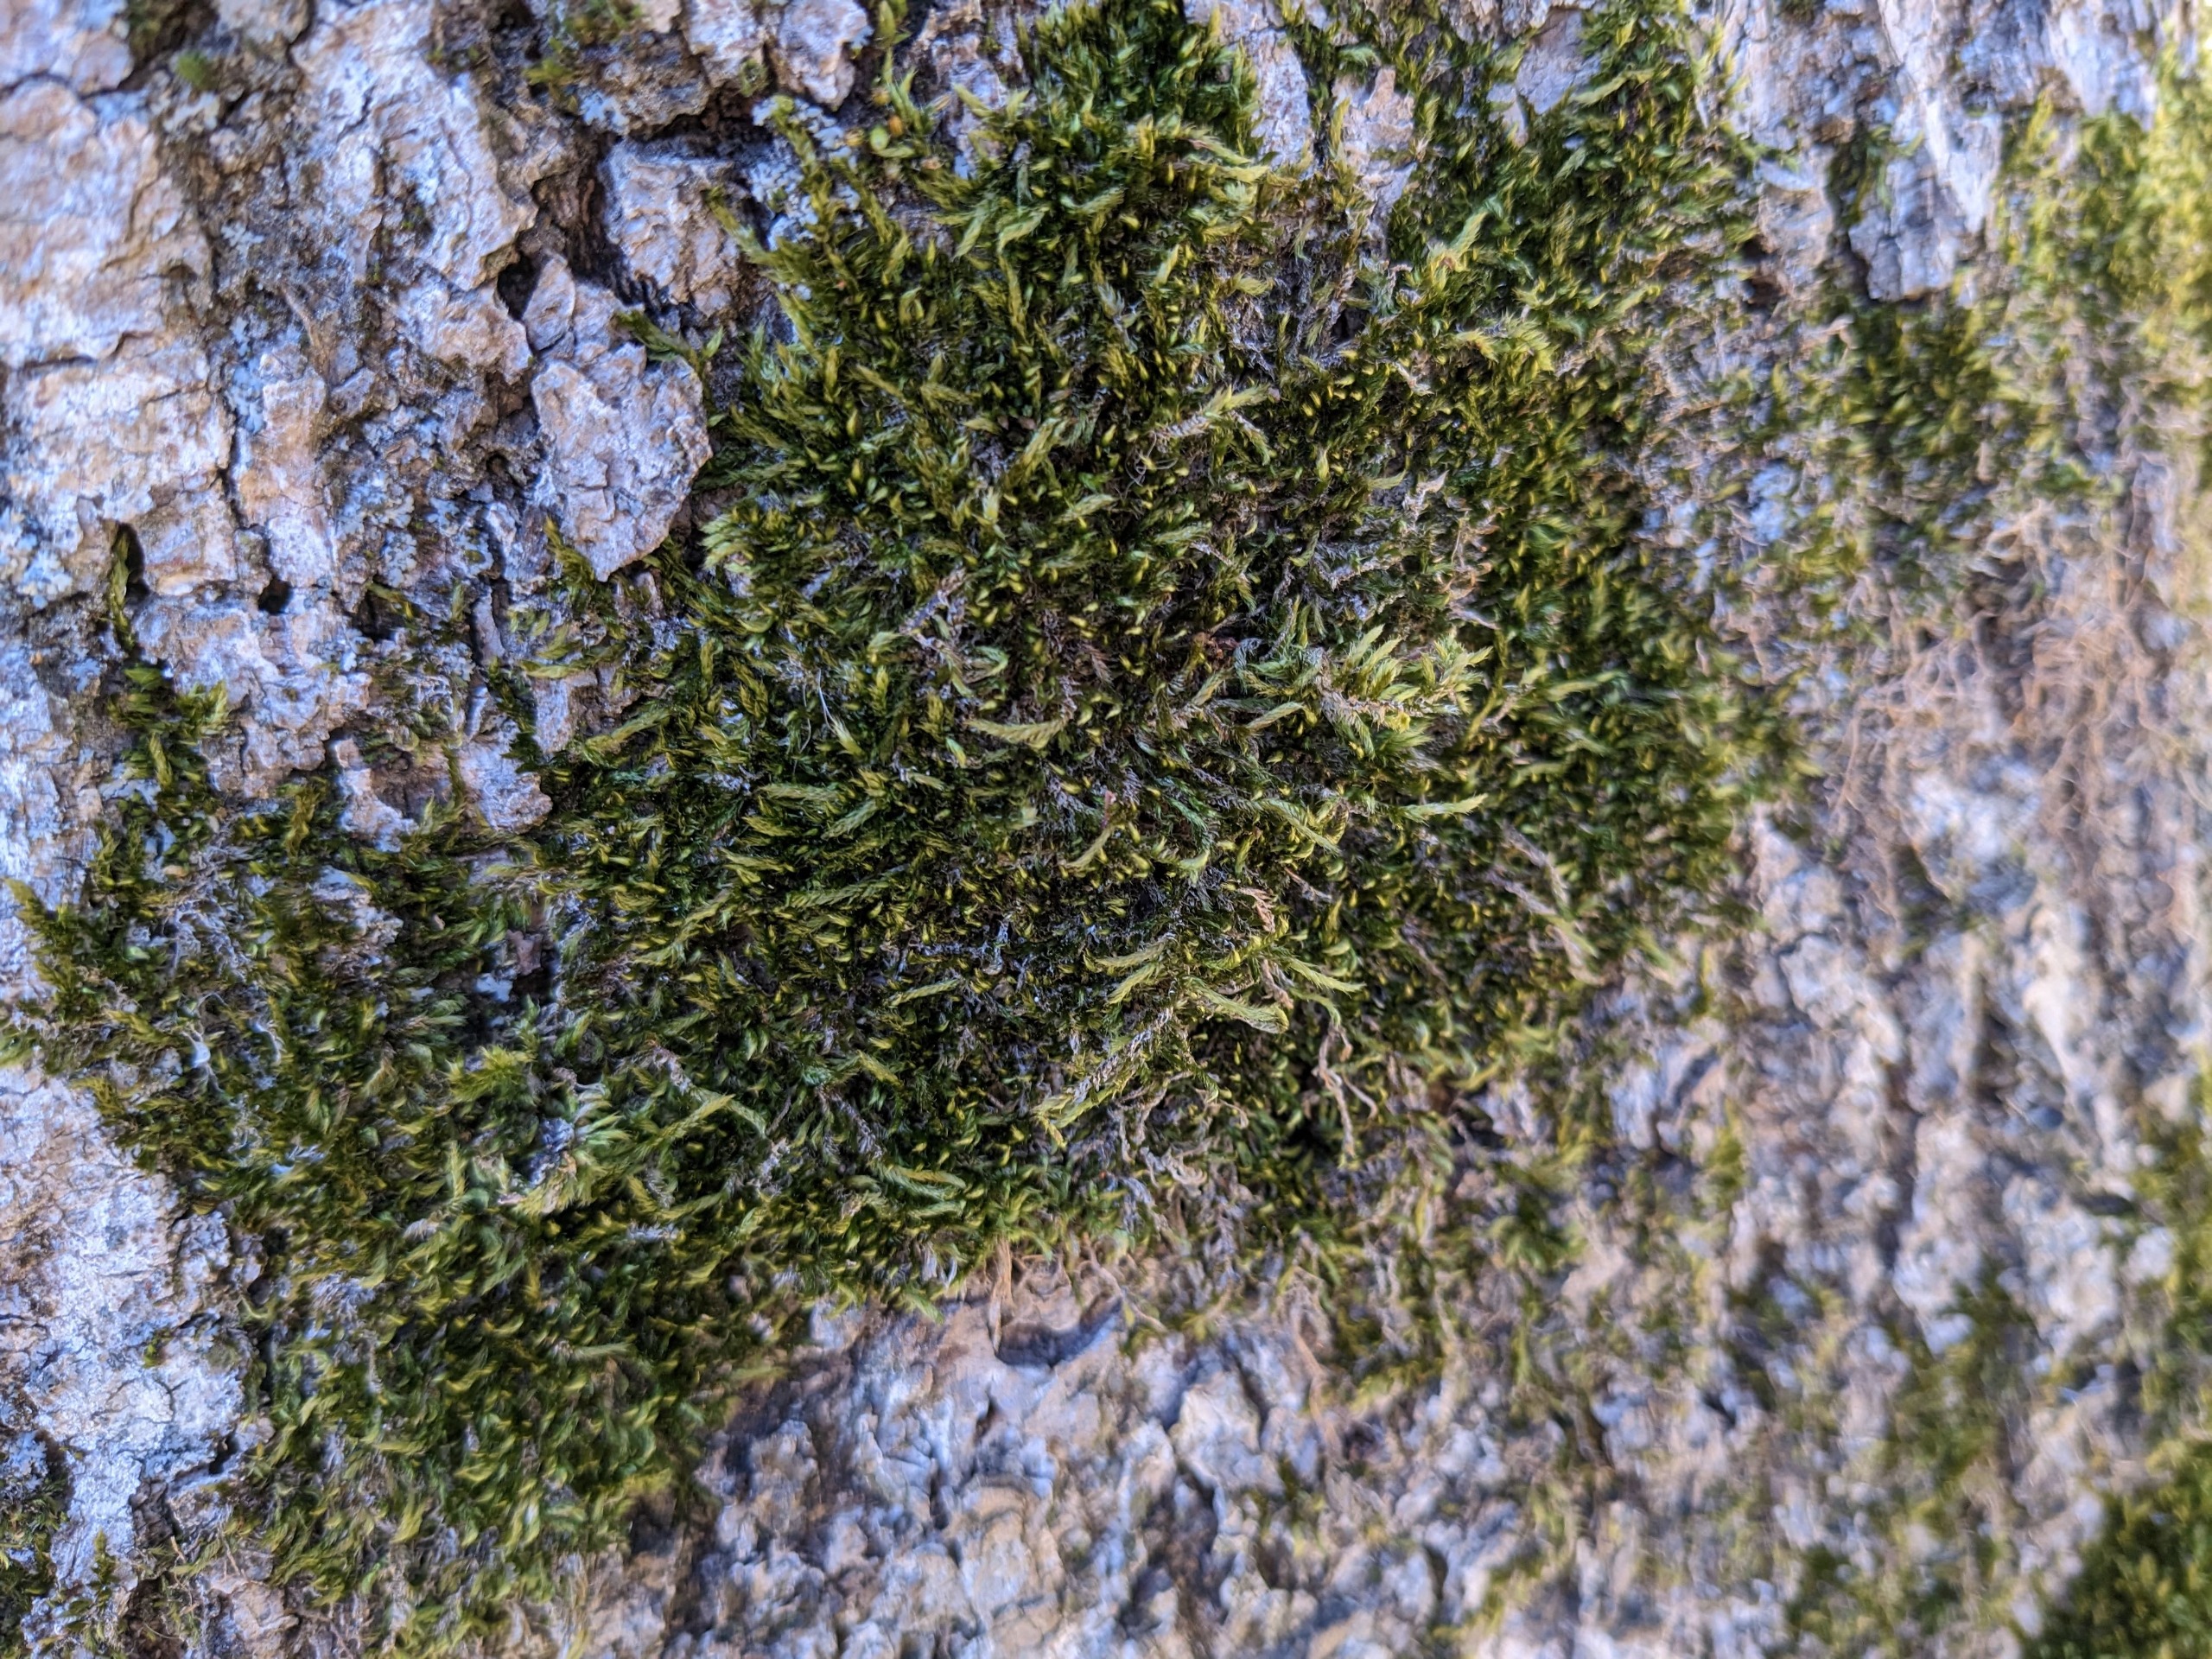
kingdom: Plantae
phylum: Bryophyta
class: Bryopsida
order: Hypnales
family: Pylaisiadelphaceae
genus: Platygyrium
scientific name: Platygyrium repens
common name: Mørk yngleknop
